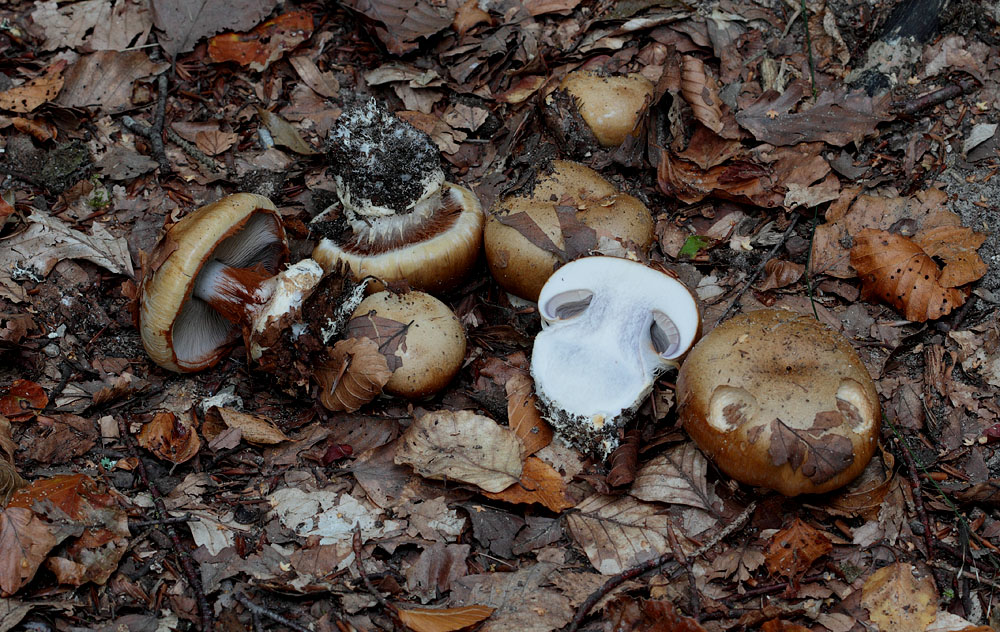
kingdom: Fungi
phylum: Basidiomycota
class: Agaricomycetes
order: Agaricales
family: Cortinariaceae
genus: Cortinarius
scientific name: Cortinarius anserinus
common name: bøge-slørhat
